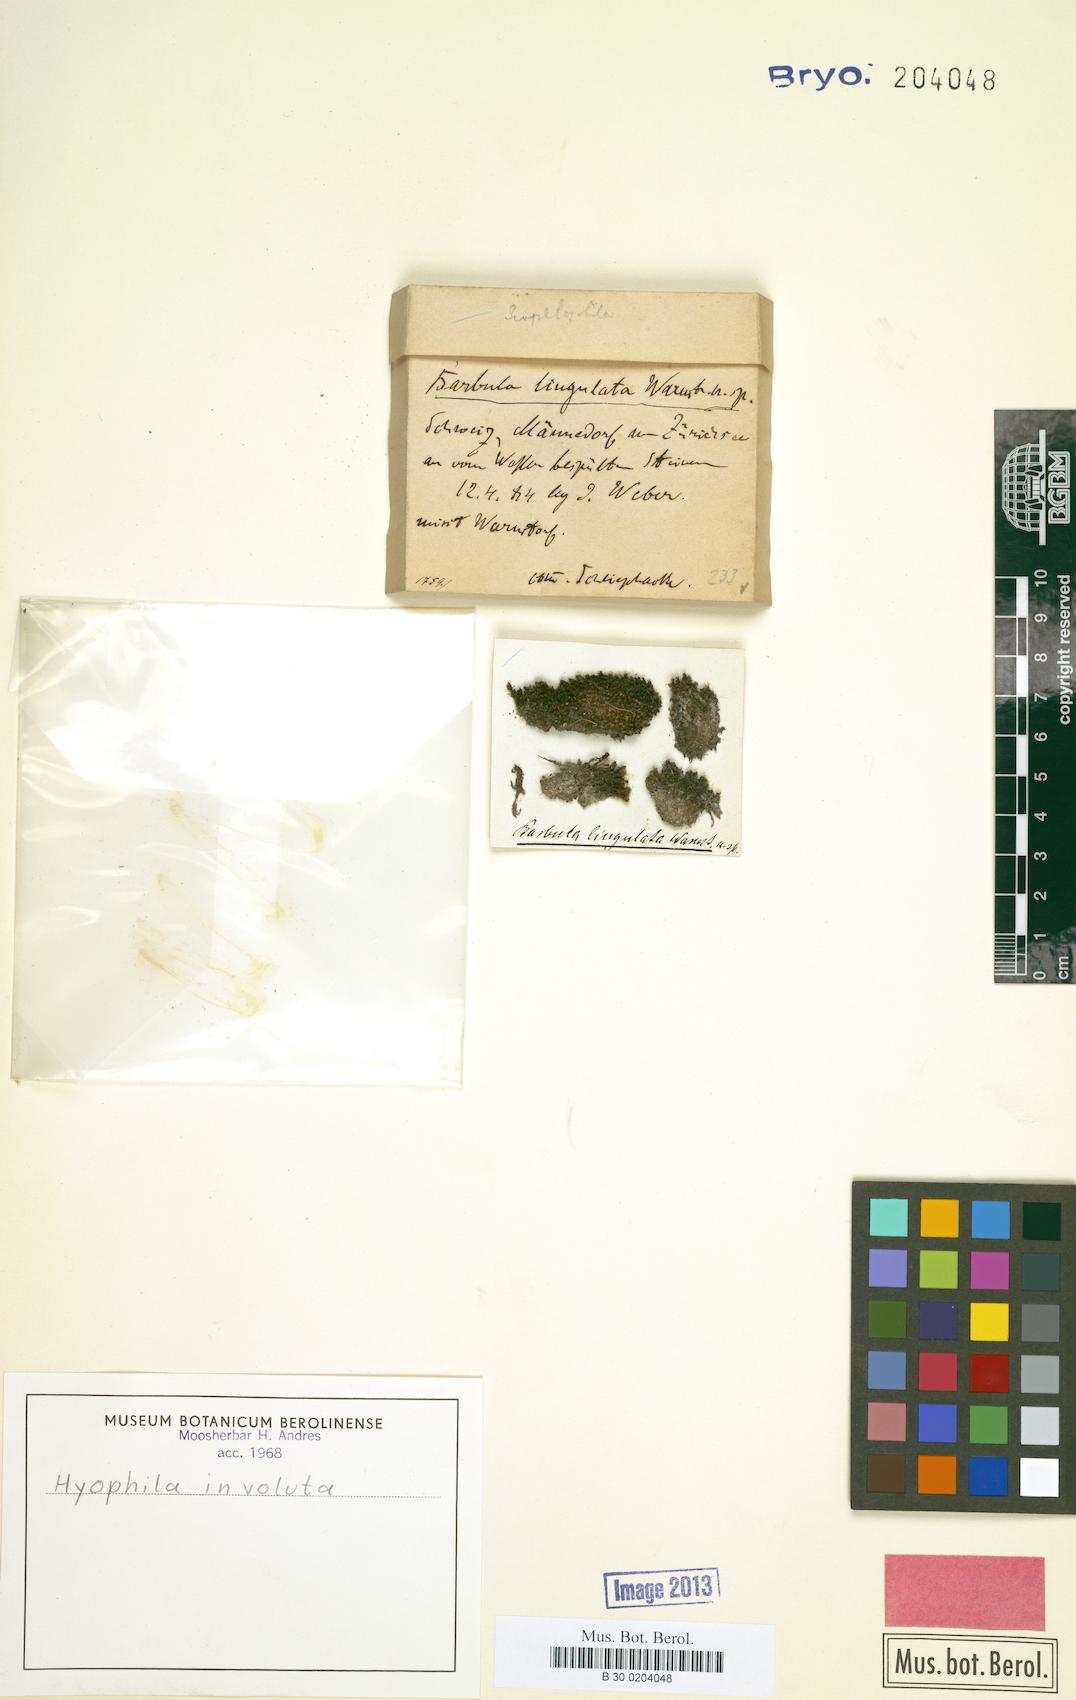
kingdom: Plantae
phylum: Bryophyta
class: Bryopsida
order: Pottiales
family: Pottiaceae
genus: Hyophila
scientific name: Hyophila involuta
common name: Hyophila moss
